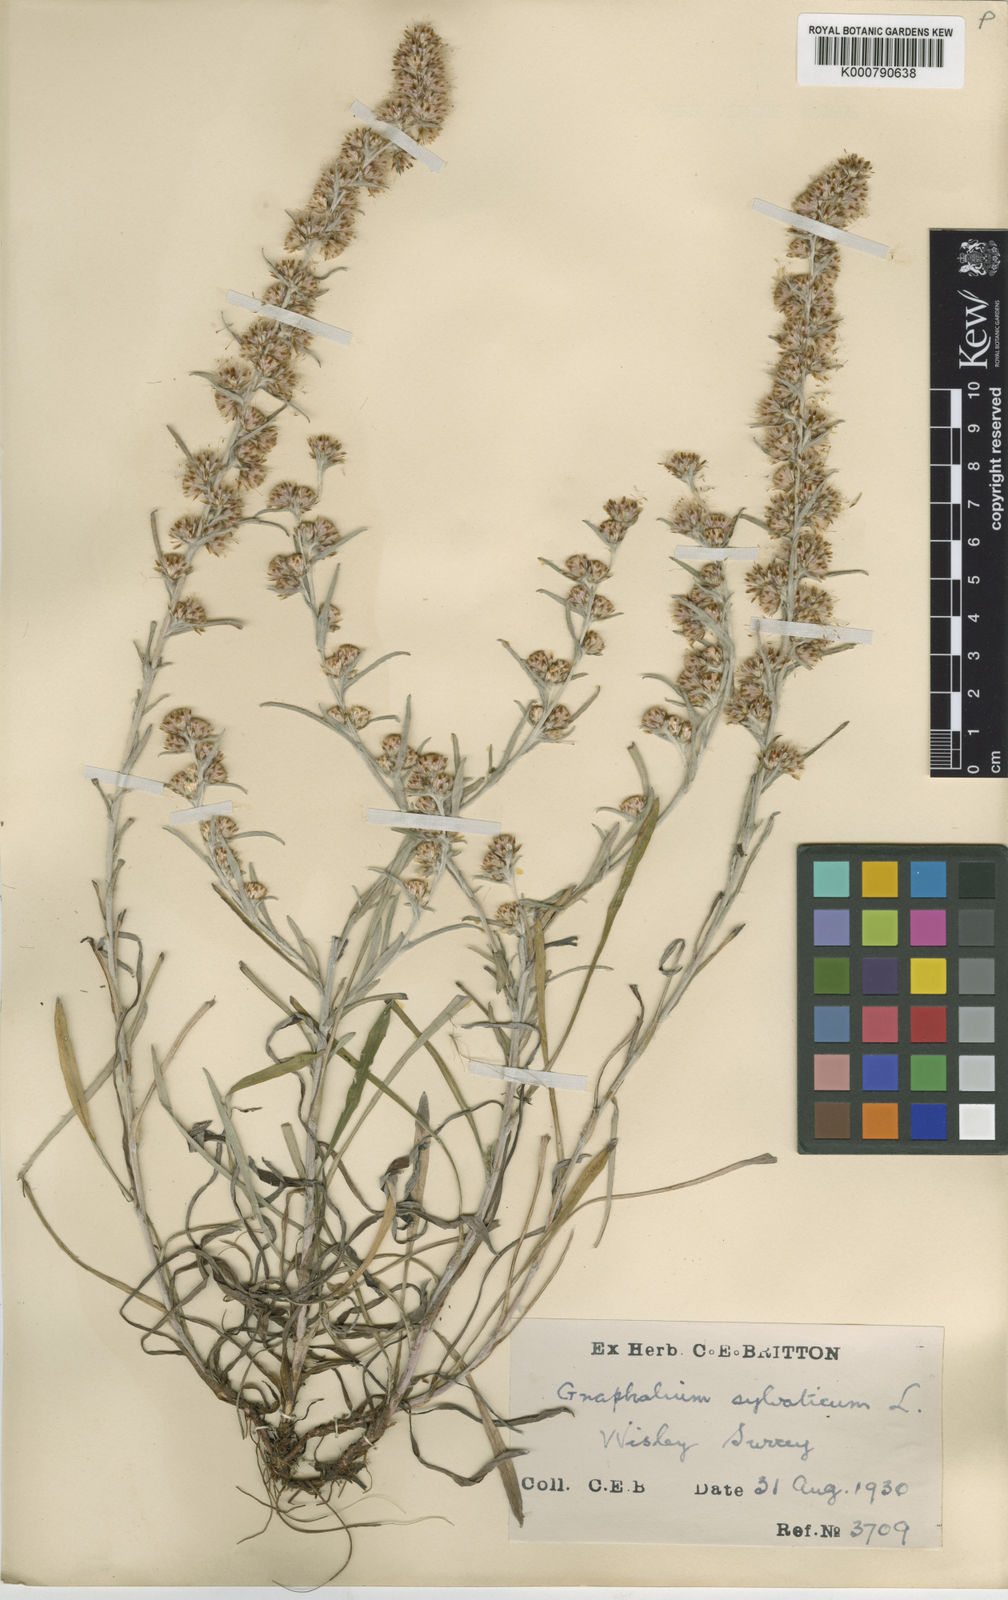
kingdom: Plantae
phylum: Tracheophyta
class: Magnoliopsida
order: Asterales
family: Asteraceae
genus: Omalotheca
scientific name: Omalotheca sylvatica
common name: Heath cudweed
